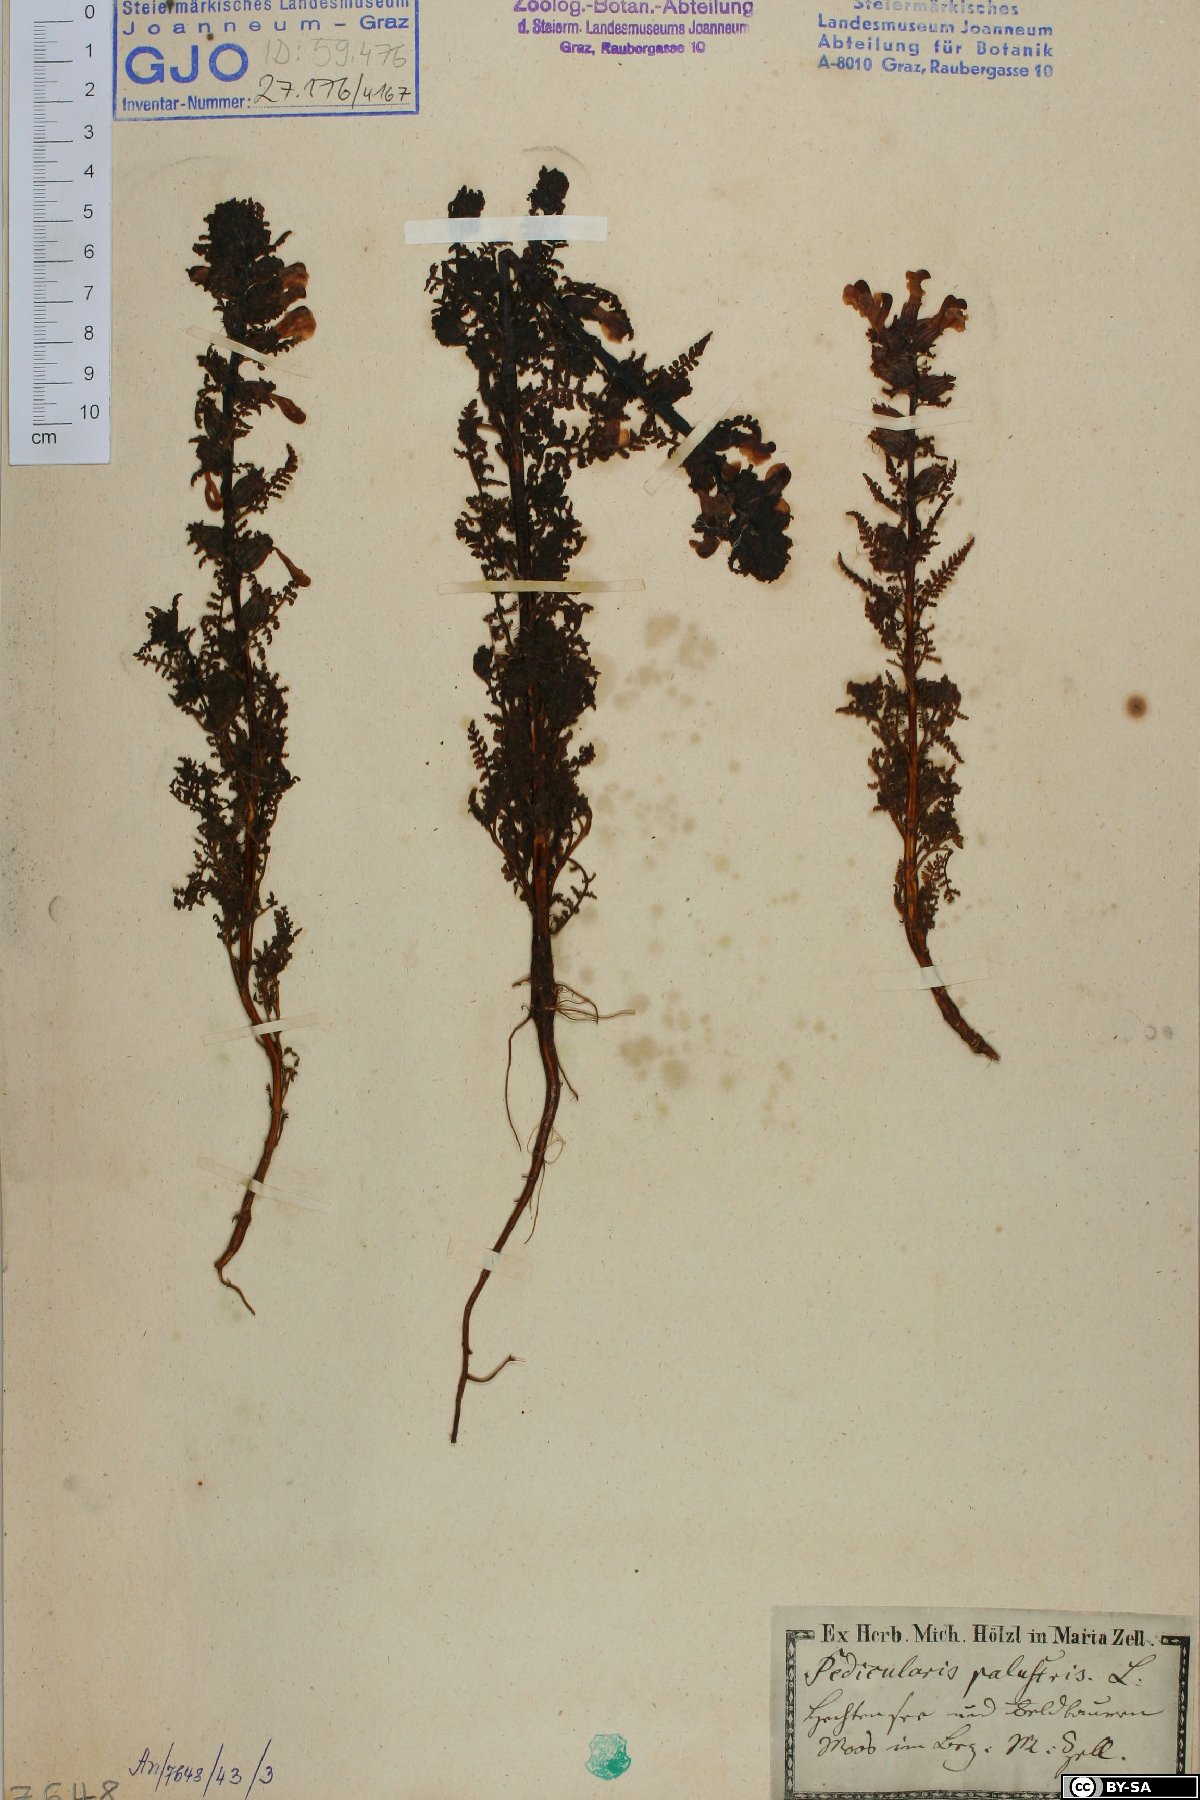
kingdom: Plantae
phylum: Tracheophyta
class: Magnoliopsida
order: Lamiales
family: Orobanchaceae
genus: Pedicularis
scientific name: Pedicularis palustris
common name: Marsh lousewort
